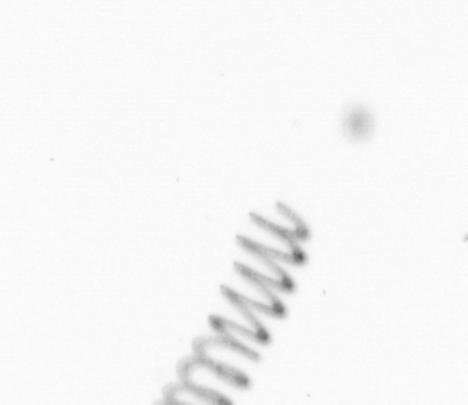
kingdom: Chromista
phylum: Ochrophyta
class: Bacillariophyceae
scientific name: Bacillariophyceae
